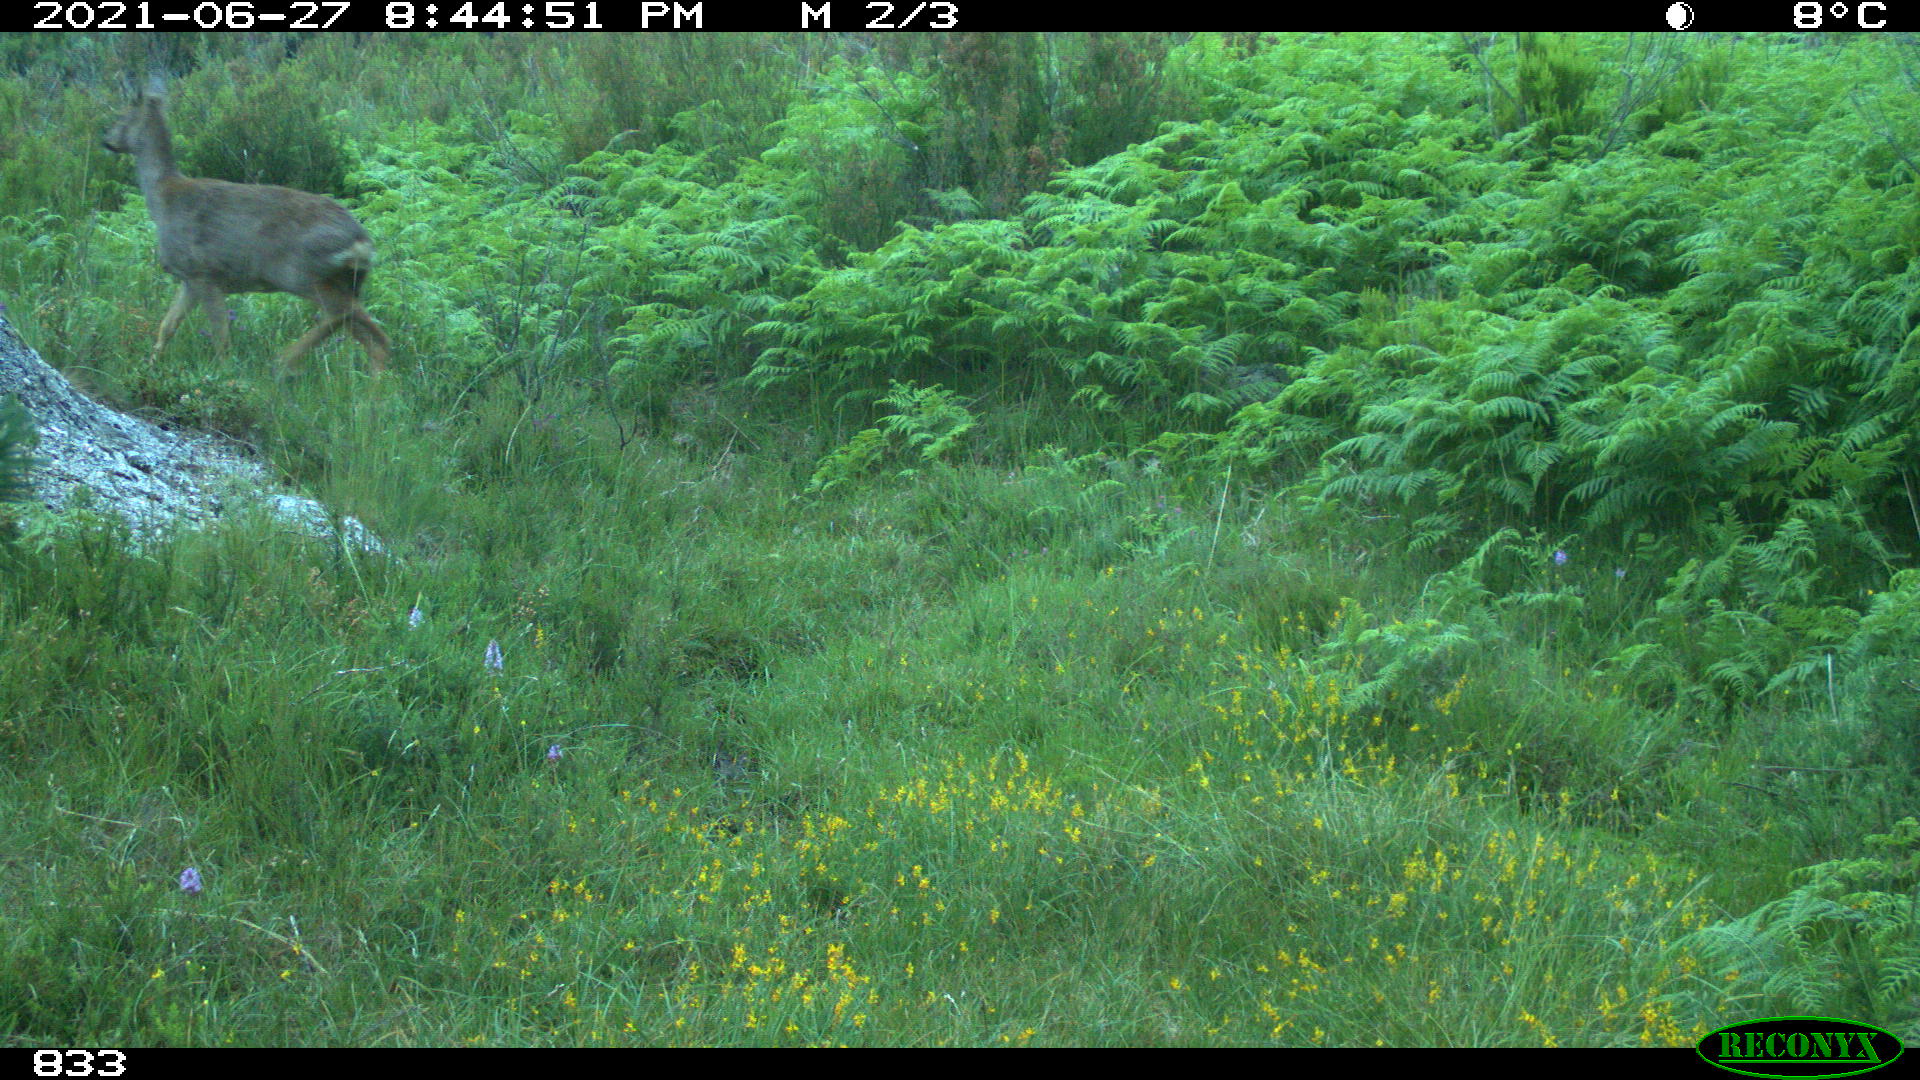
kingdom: Animalia
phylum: Chordata
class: Mammalia
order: Artiodactyla
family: Cervidae
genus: Capreolus
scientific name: Capreolus capreolus
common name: Western roe deer
